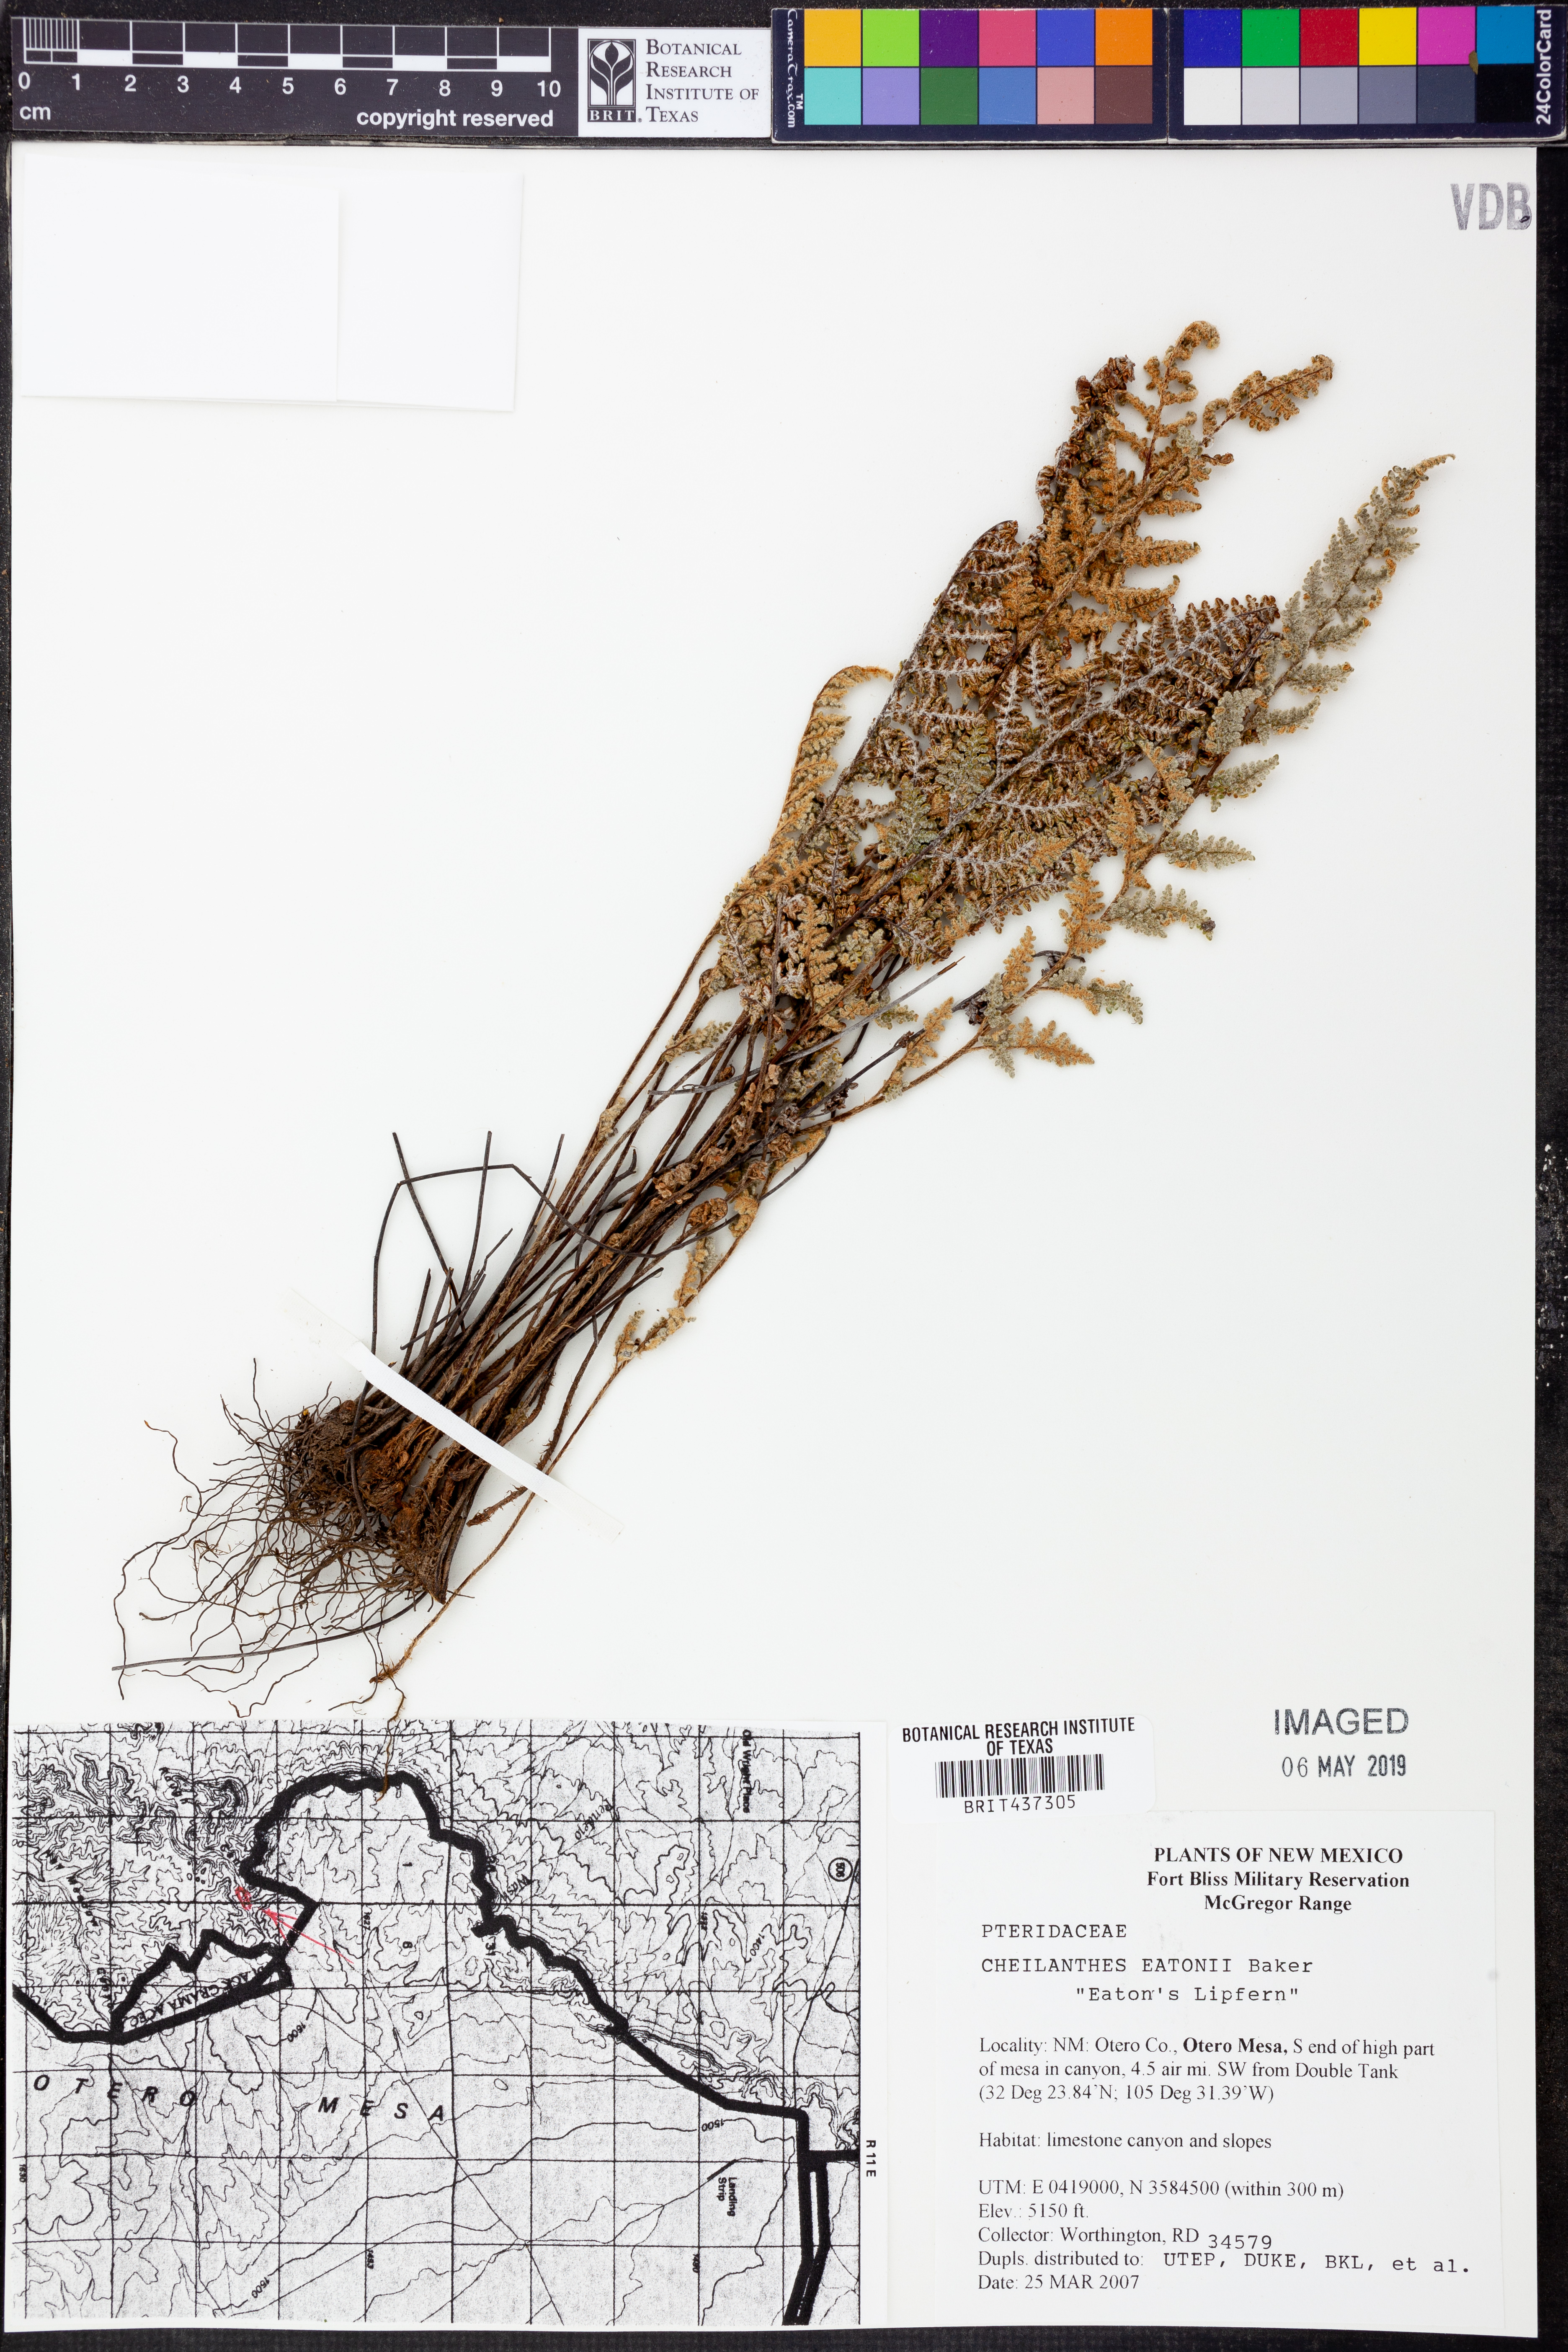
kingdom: Plantae
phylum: Tracheophyta
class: Polypodiopsida
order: Polypodiales
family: Pteridaceae
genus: Myriopteris
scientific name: Myriopteris rufa
